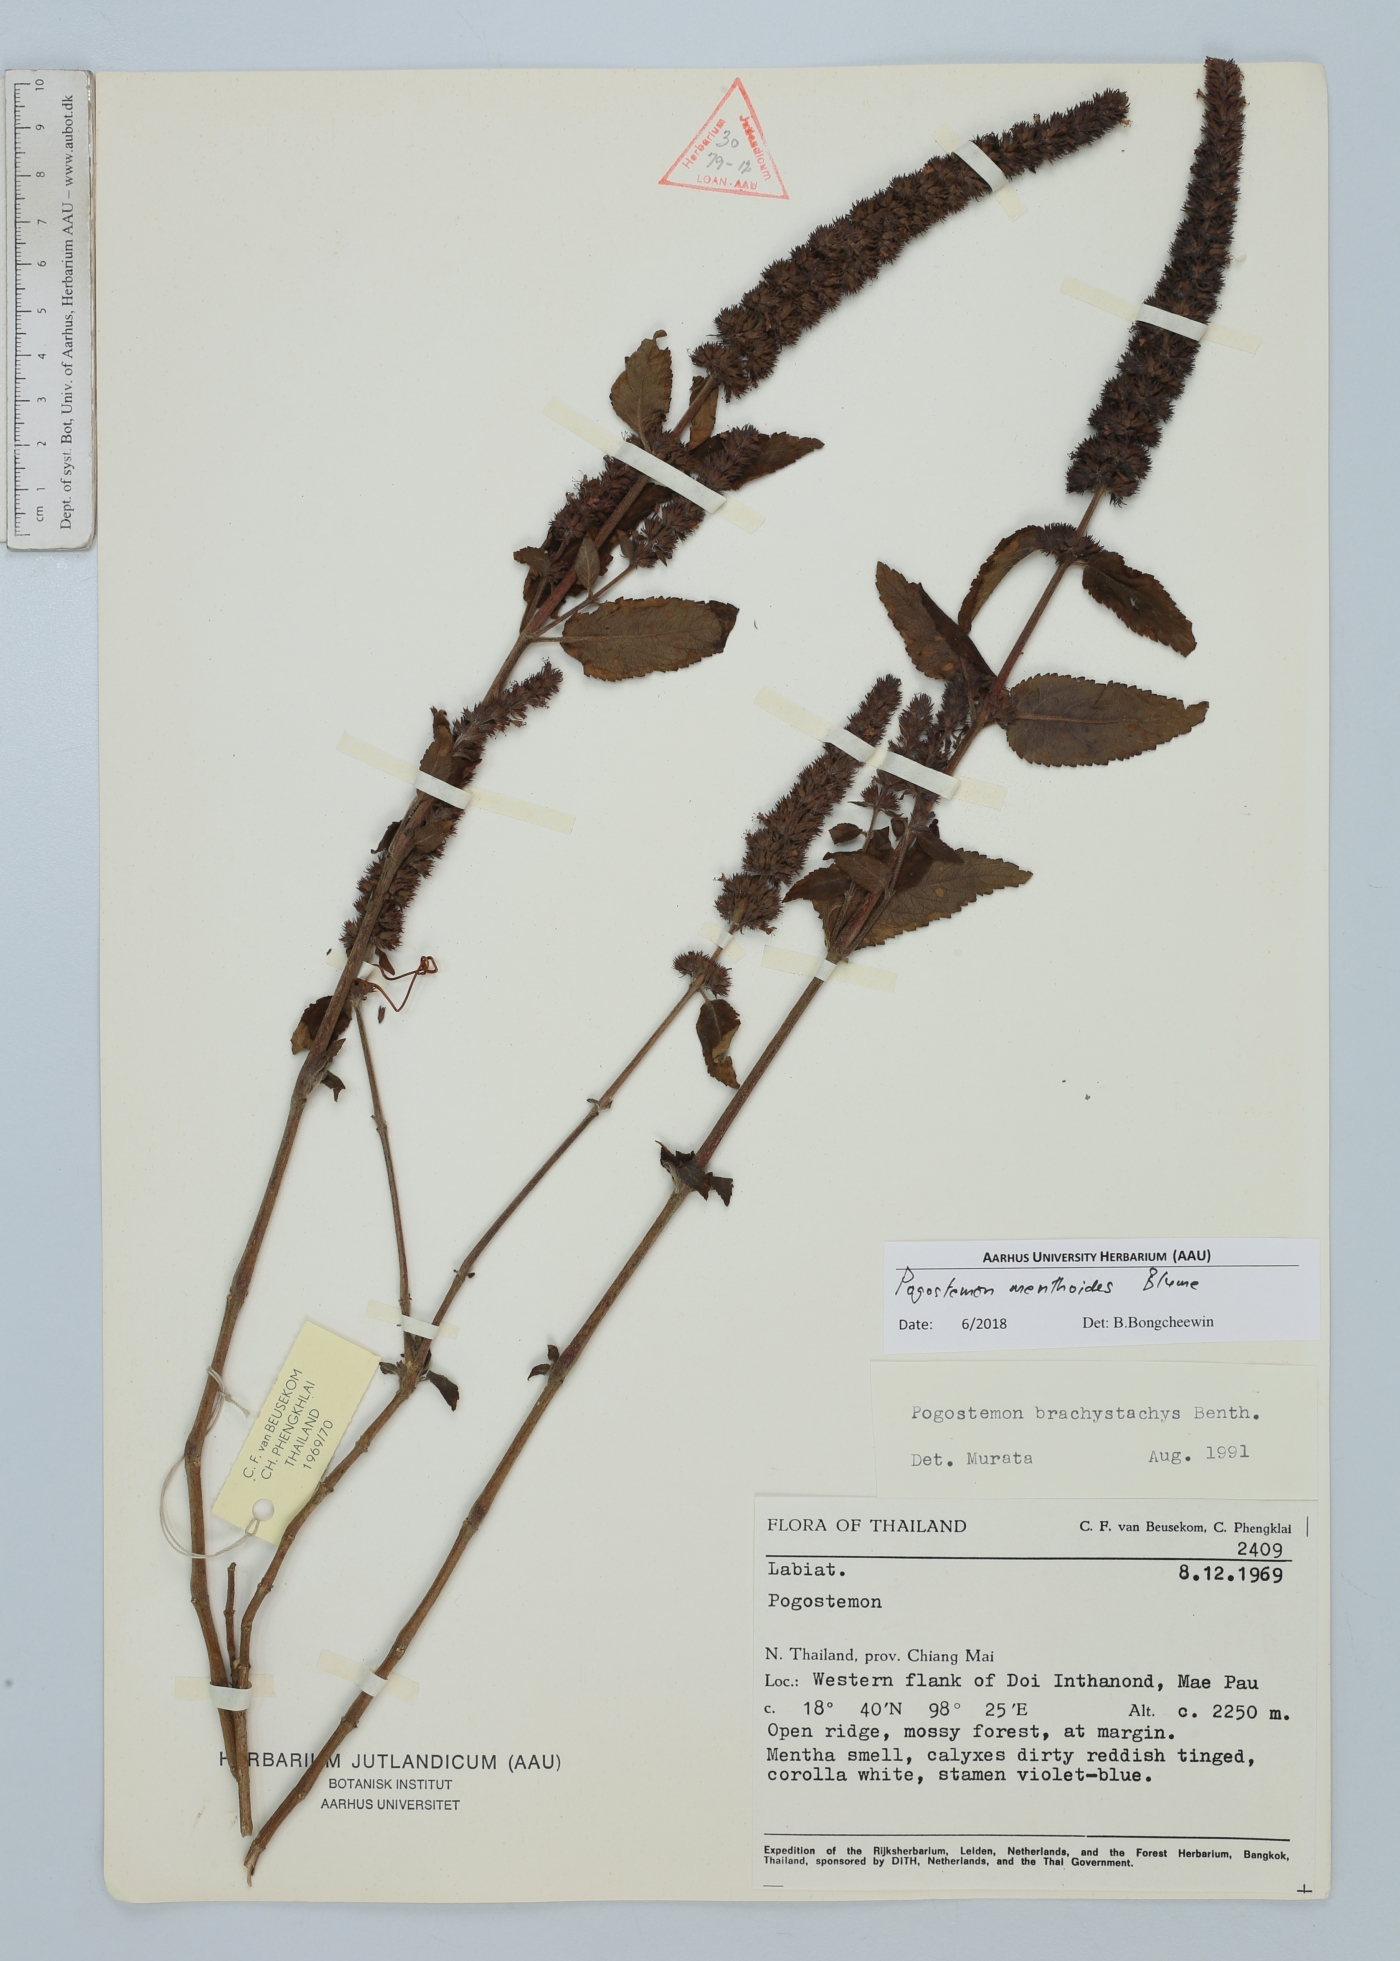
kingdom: Plantae
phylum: Tracheophyta
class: Magnoliopsida
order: Lamiales
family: Lamiaceae
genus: Pogostemon
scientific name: Pogostemon menthoides
